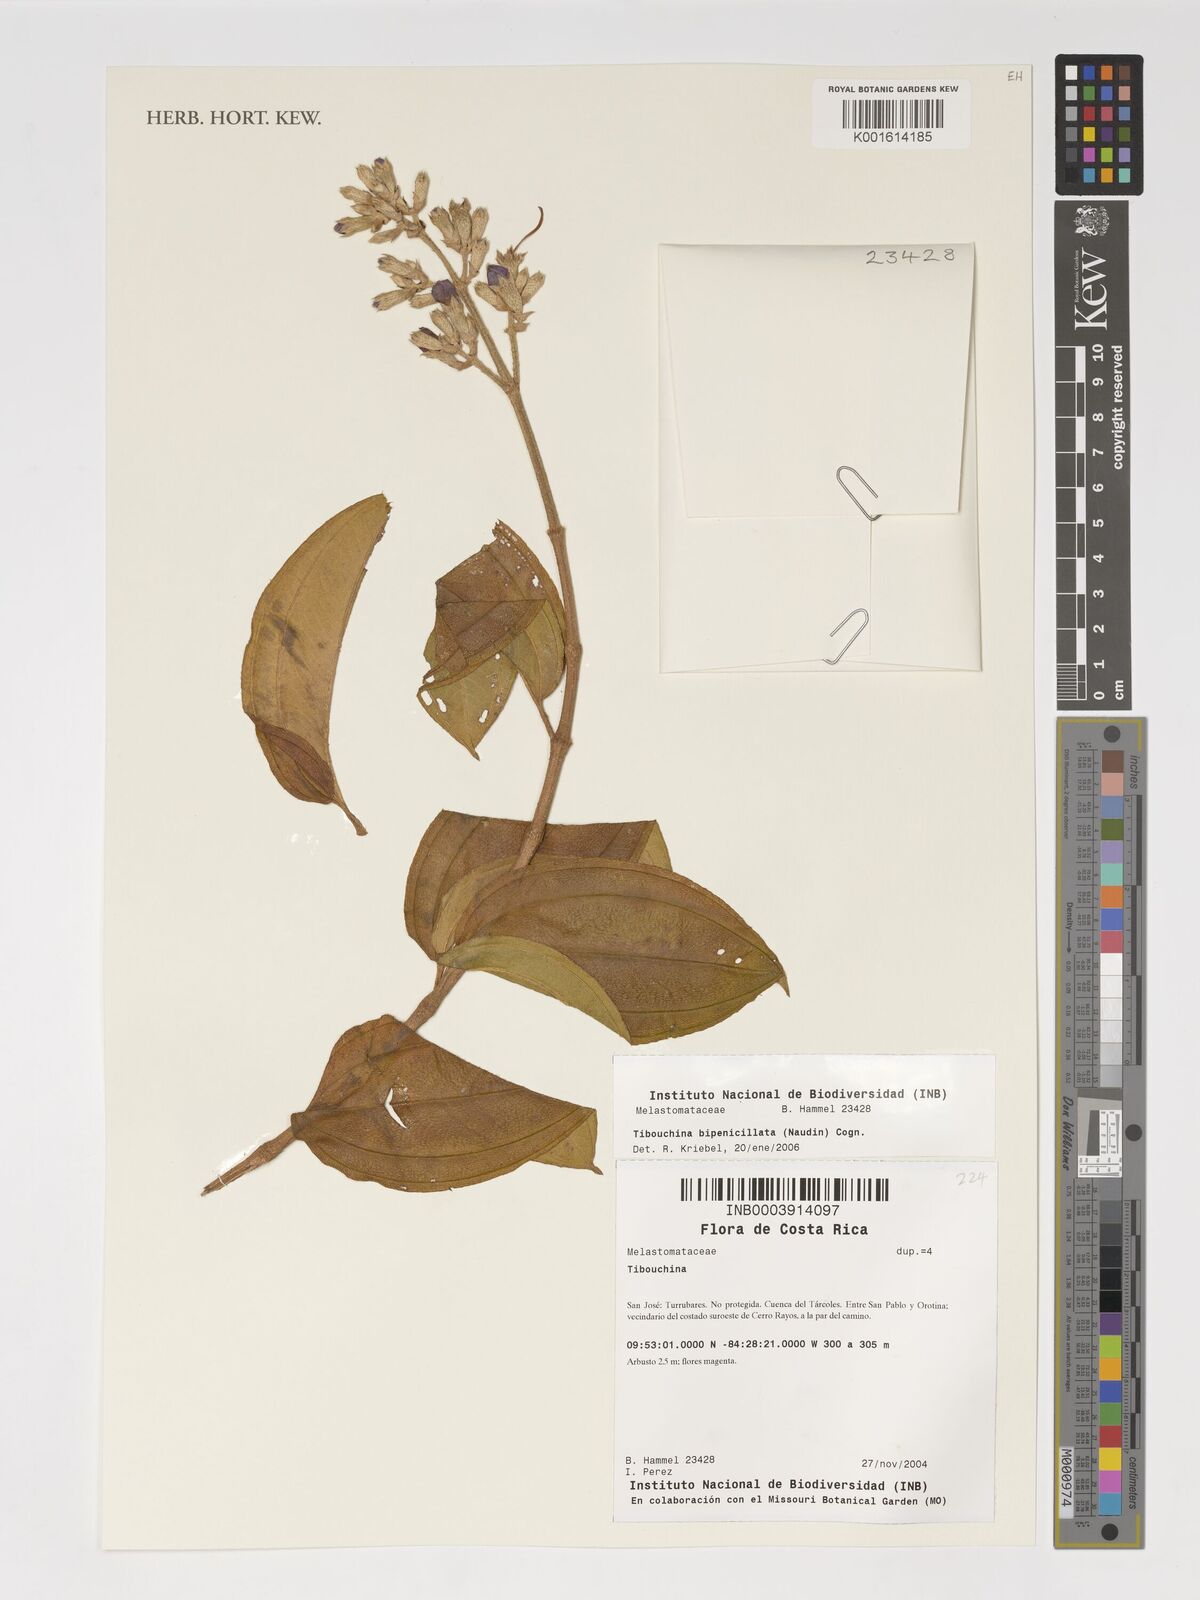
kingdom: Plantae
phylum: Tracheophyta
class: Magnoliopsida
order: Myrtales
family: Melastomataceae
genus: Pleroma
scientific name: Pleroma bipenicillatum
